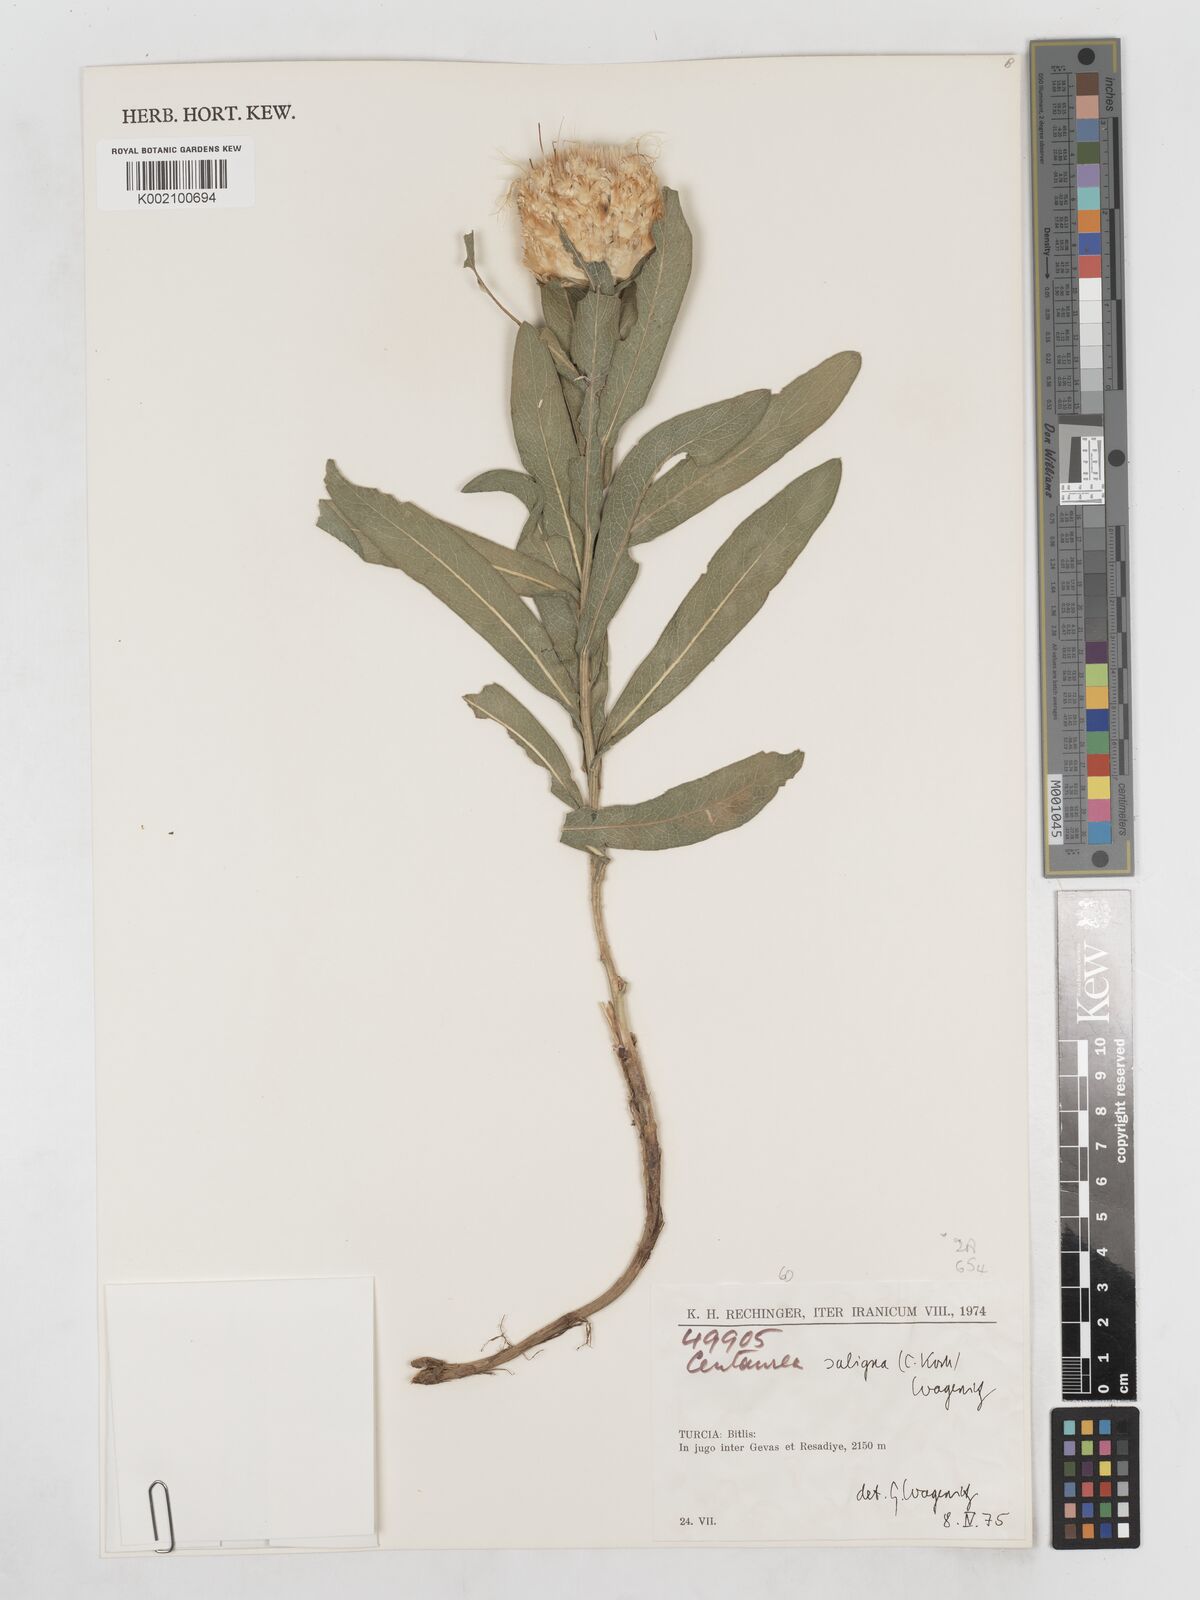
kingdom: Plantae
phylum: Tracheophyta
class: Magnoliopsida
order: Asterales
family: Asteraceae
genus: Centaurea
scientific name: Centaurea saligna
